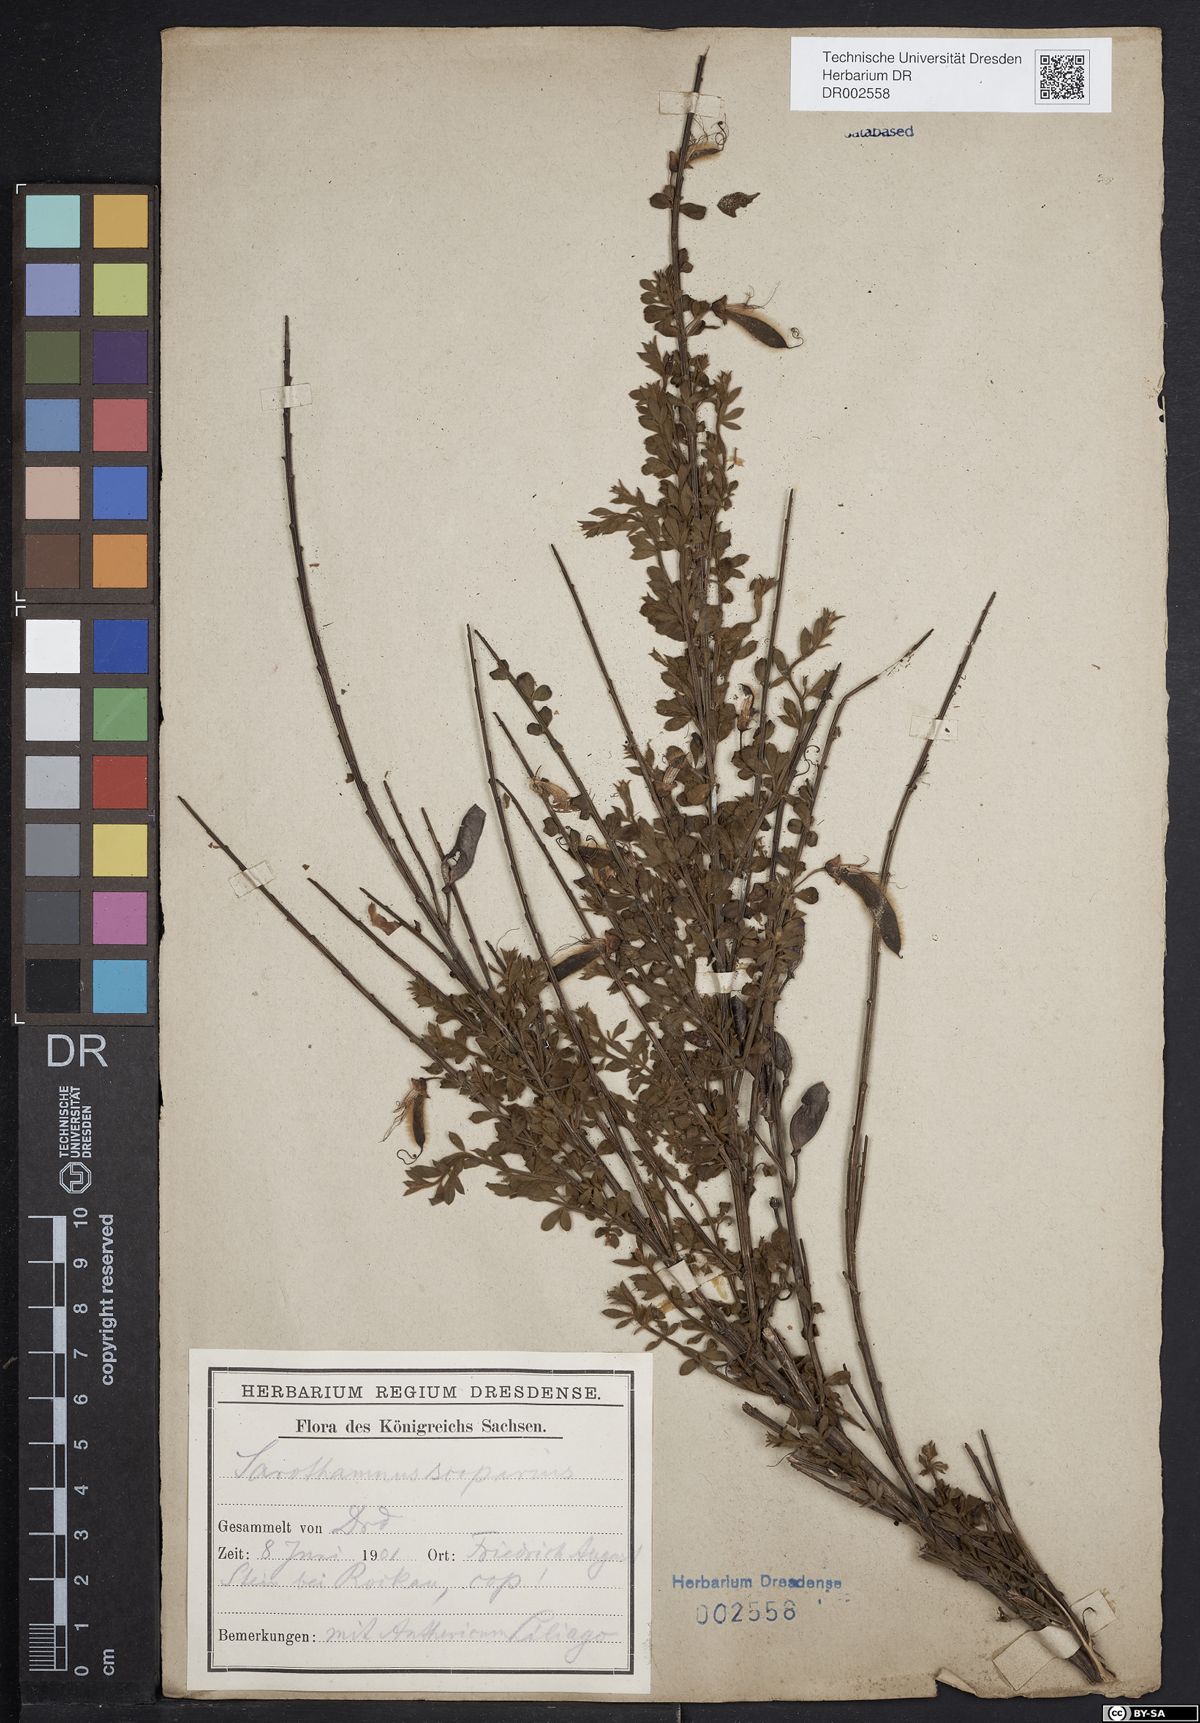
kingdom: Plantae
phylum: Tracheophyta
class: Magnoliopsida
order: Fabales
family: Fabaceae
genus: Cytisus
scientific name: Cytisus scoparius
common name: Scotch broom
